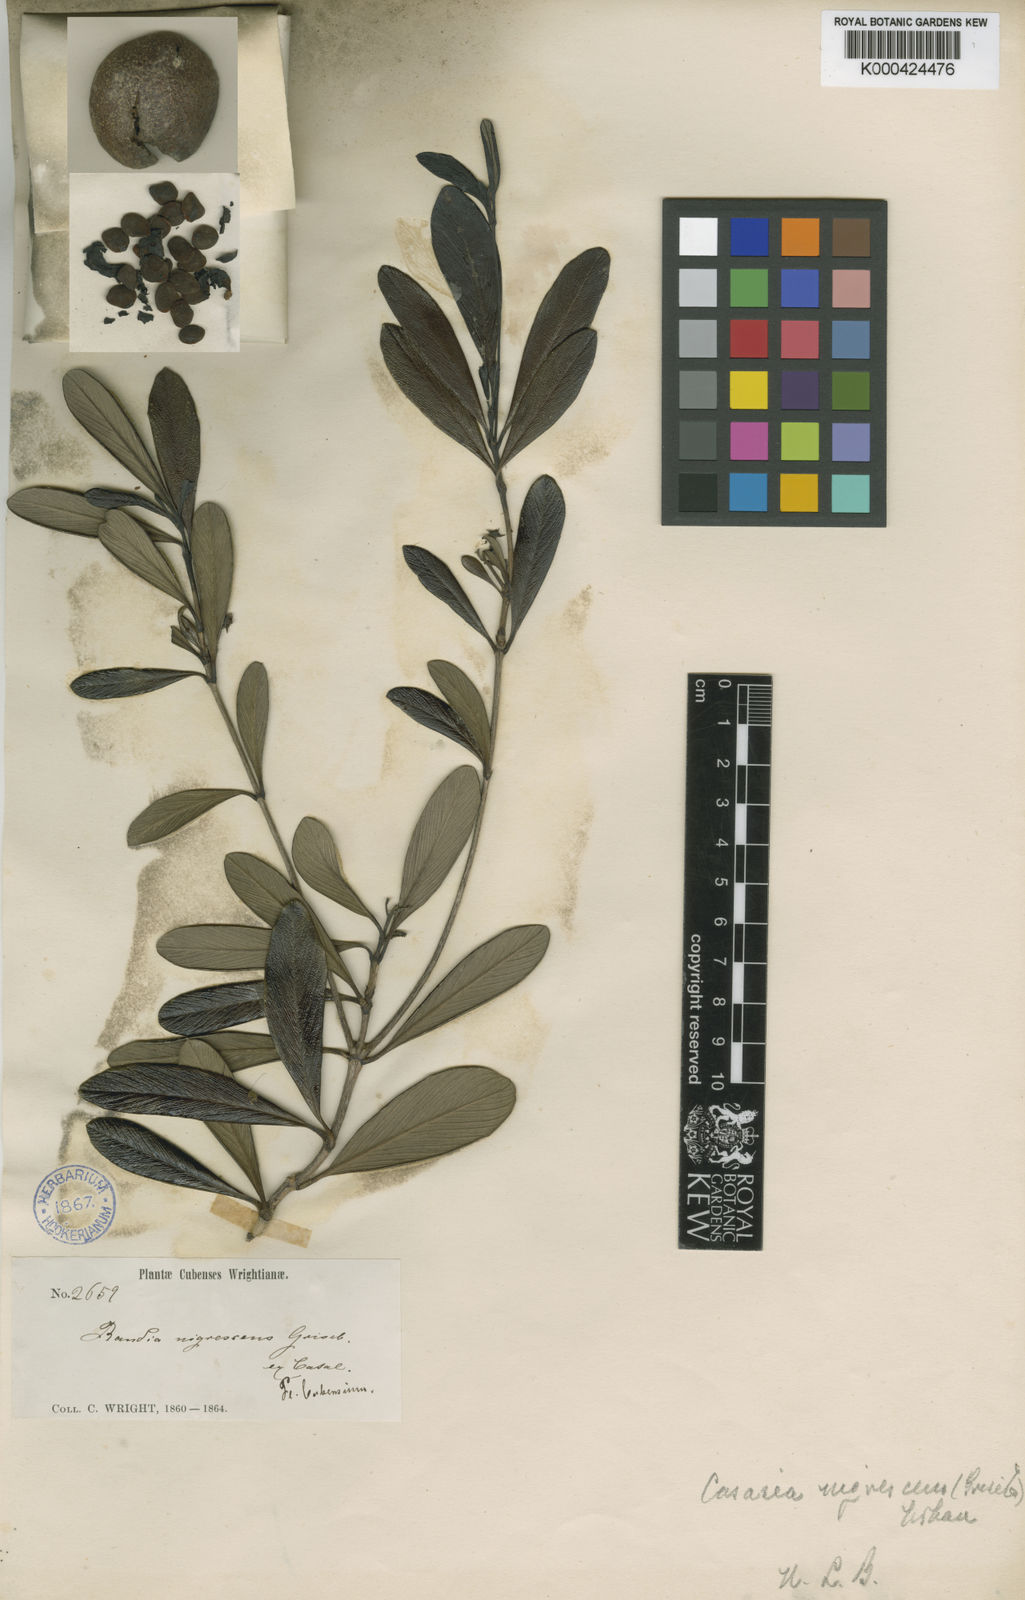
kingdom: Plantae
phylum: Tracheophyta
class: Magnoliopsida
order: Gentianales
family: Rubiaceae
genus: Casasia
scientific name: Casasia nigrescens
